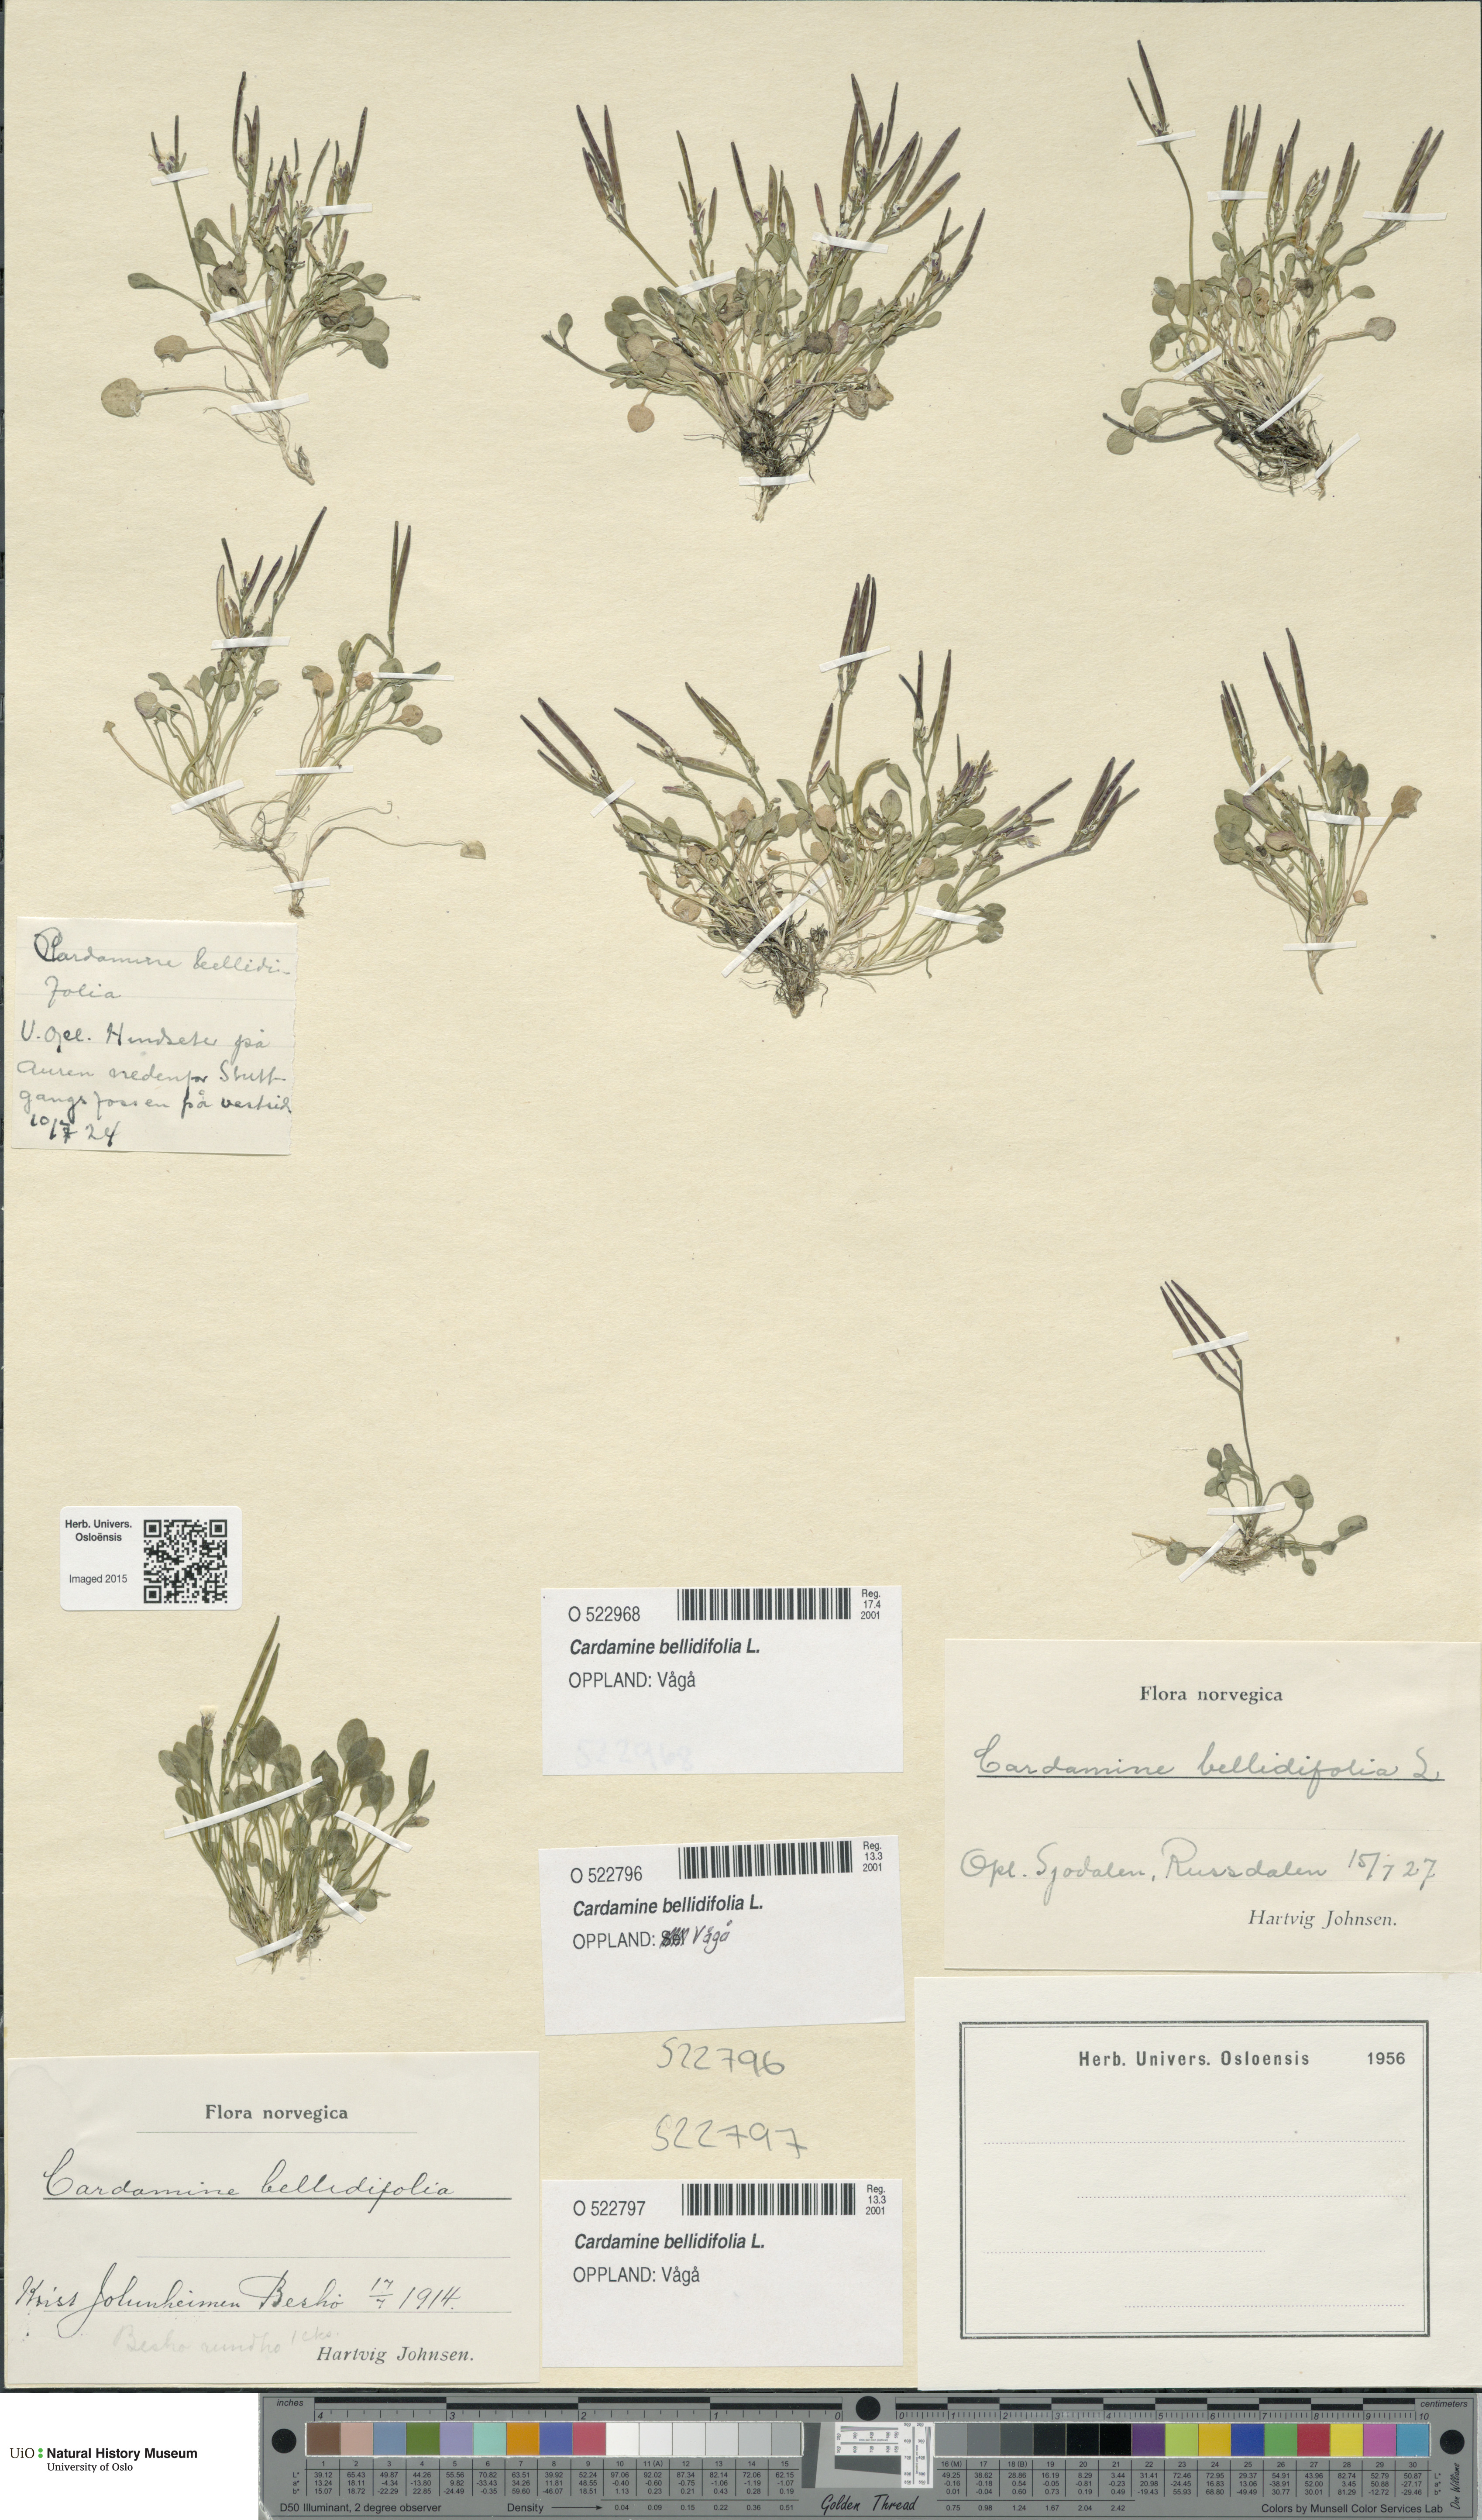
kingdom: Plantae
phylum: Tracheophyta
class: Magnoliopsida
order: Brassicales
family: Brassicaceae
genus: Cardamine
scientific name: Cardamine bellidifolia
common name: Alpine bittercress
